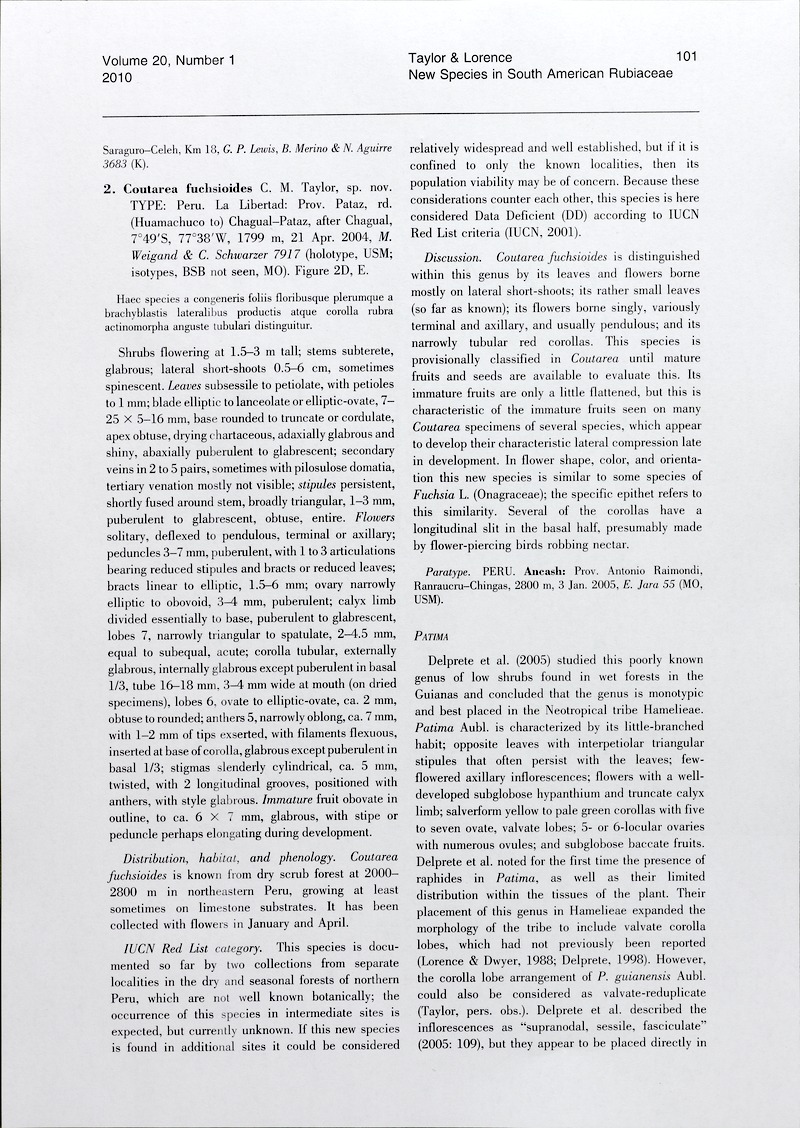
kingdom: Plantae
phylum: Tracheophyta
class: Magnoliopsida
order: Gentianales
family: Rubiaceae
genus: Coutareopsis
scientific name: Coutareopsis fuchsioides
